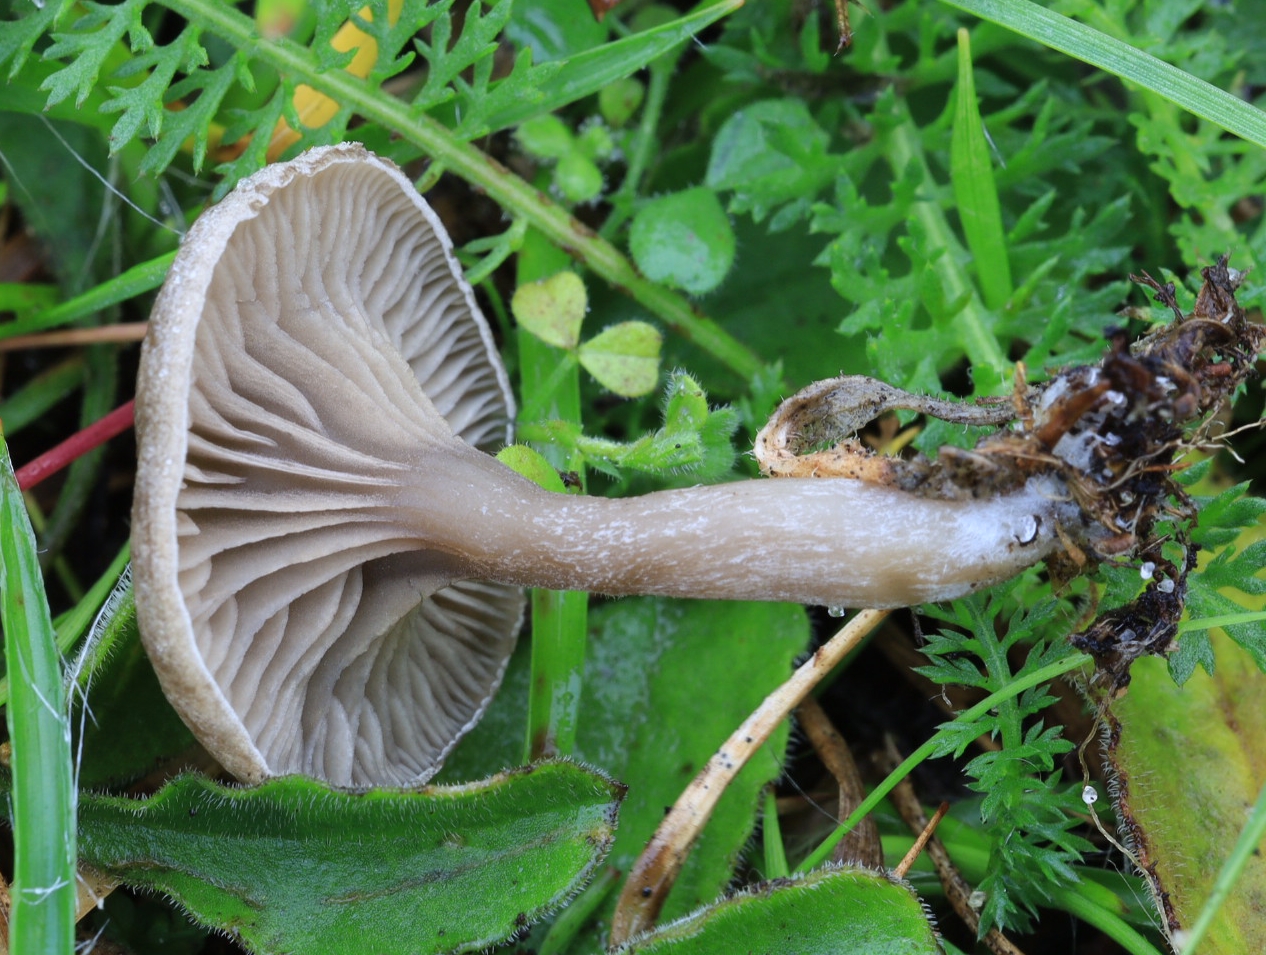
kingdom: Fungi
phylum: Basidiomycota
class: Agaricomycetes
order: Agaricales
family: Entolomataceae
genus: Entoloma
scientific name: Entoloma undatum
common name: bæltet rødblad
